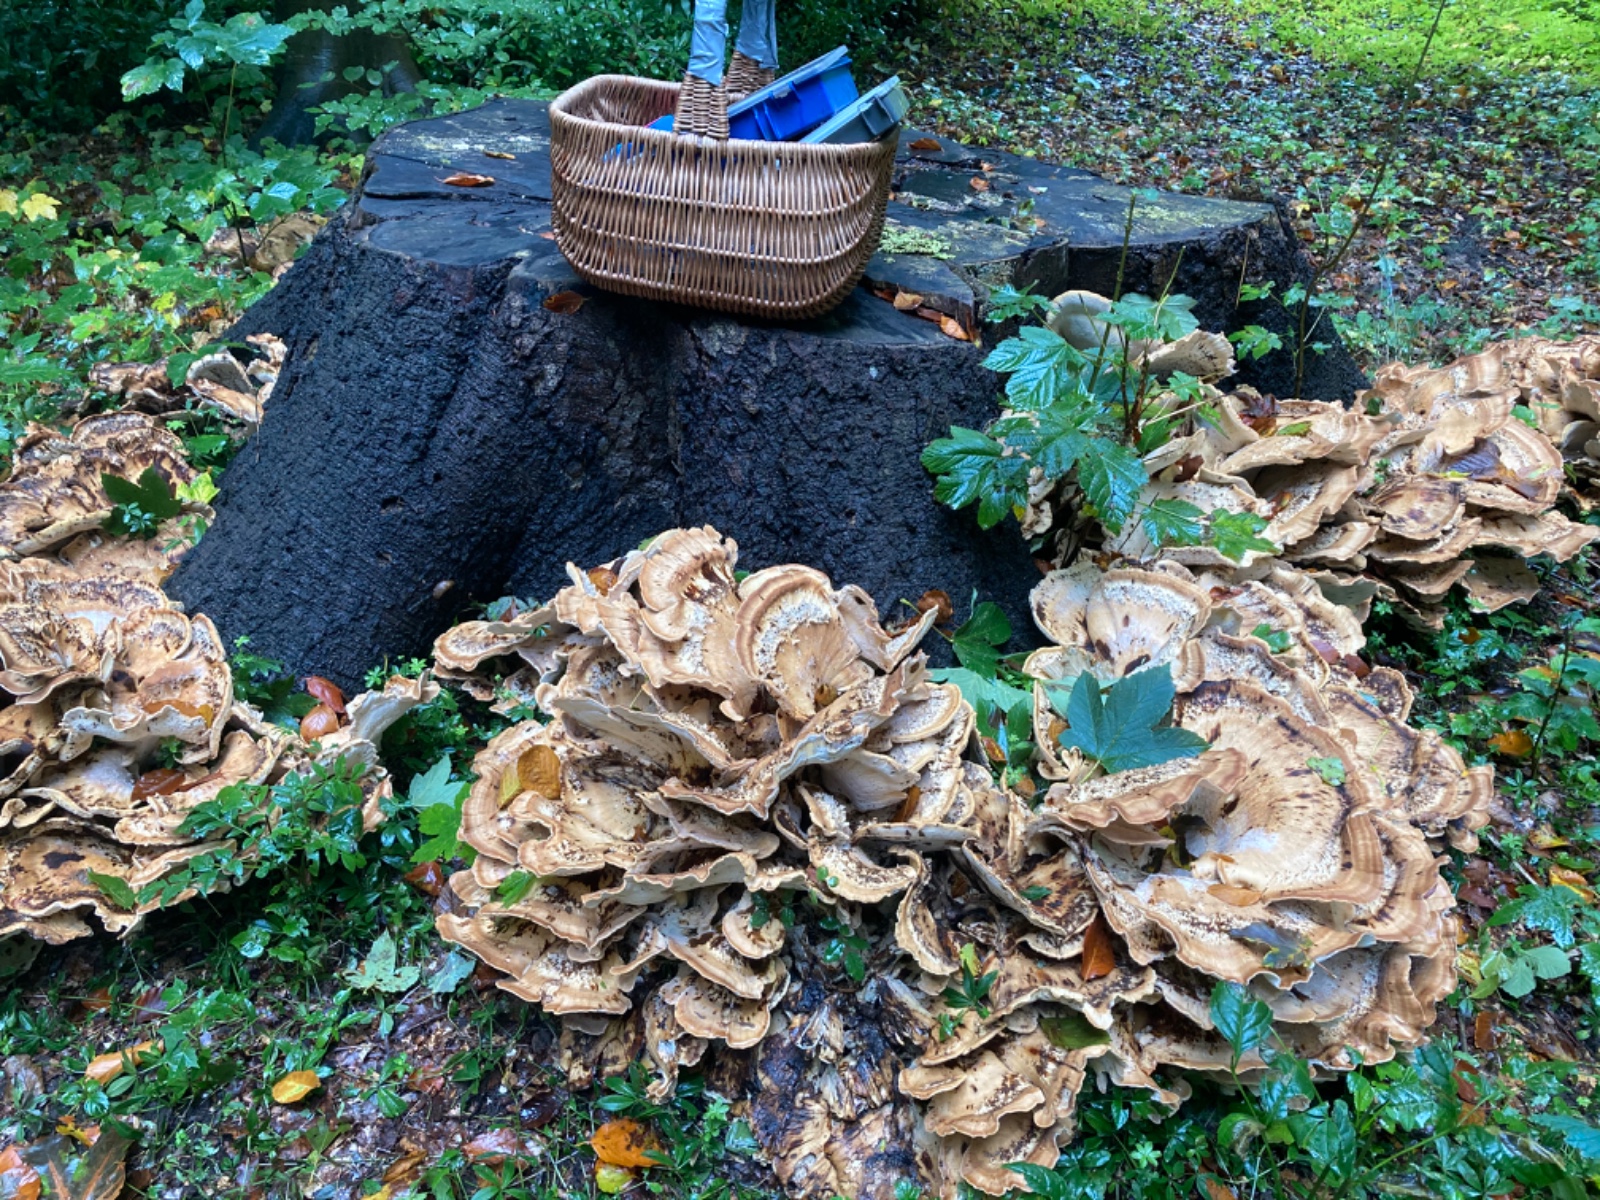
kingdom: Fungi
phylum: Basidiomycota
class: Agaricomycetes
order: Polyporales
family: Meripilaceae
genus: Meripilus
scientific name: Meripilus giganteus
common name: kæmpeporesvamp
